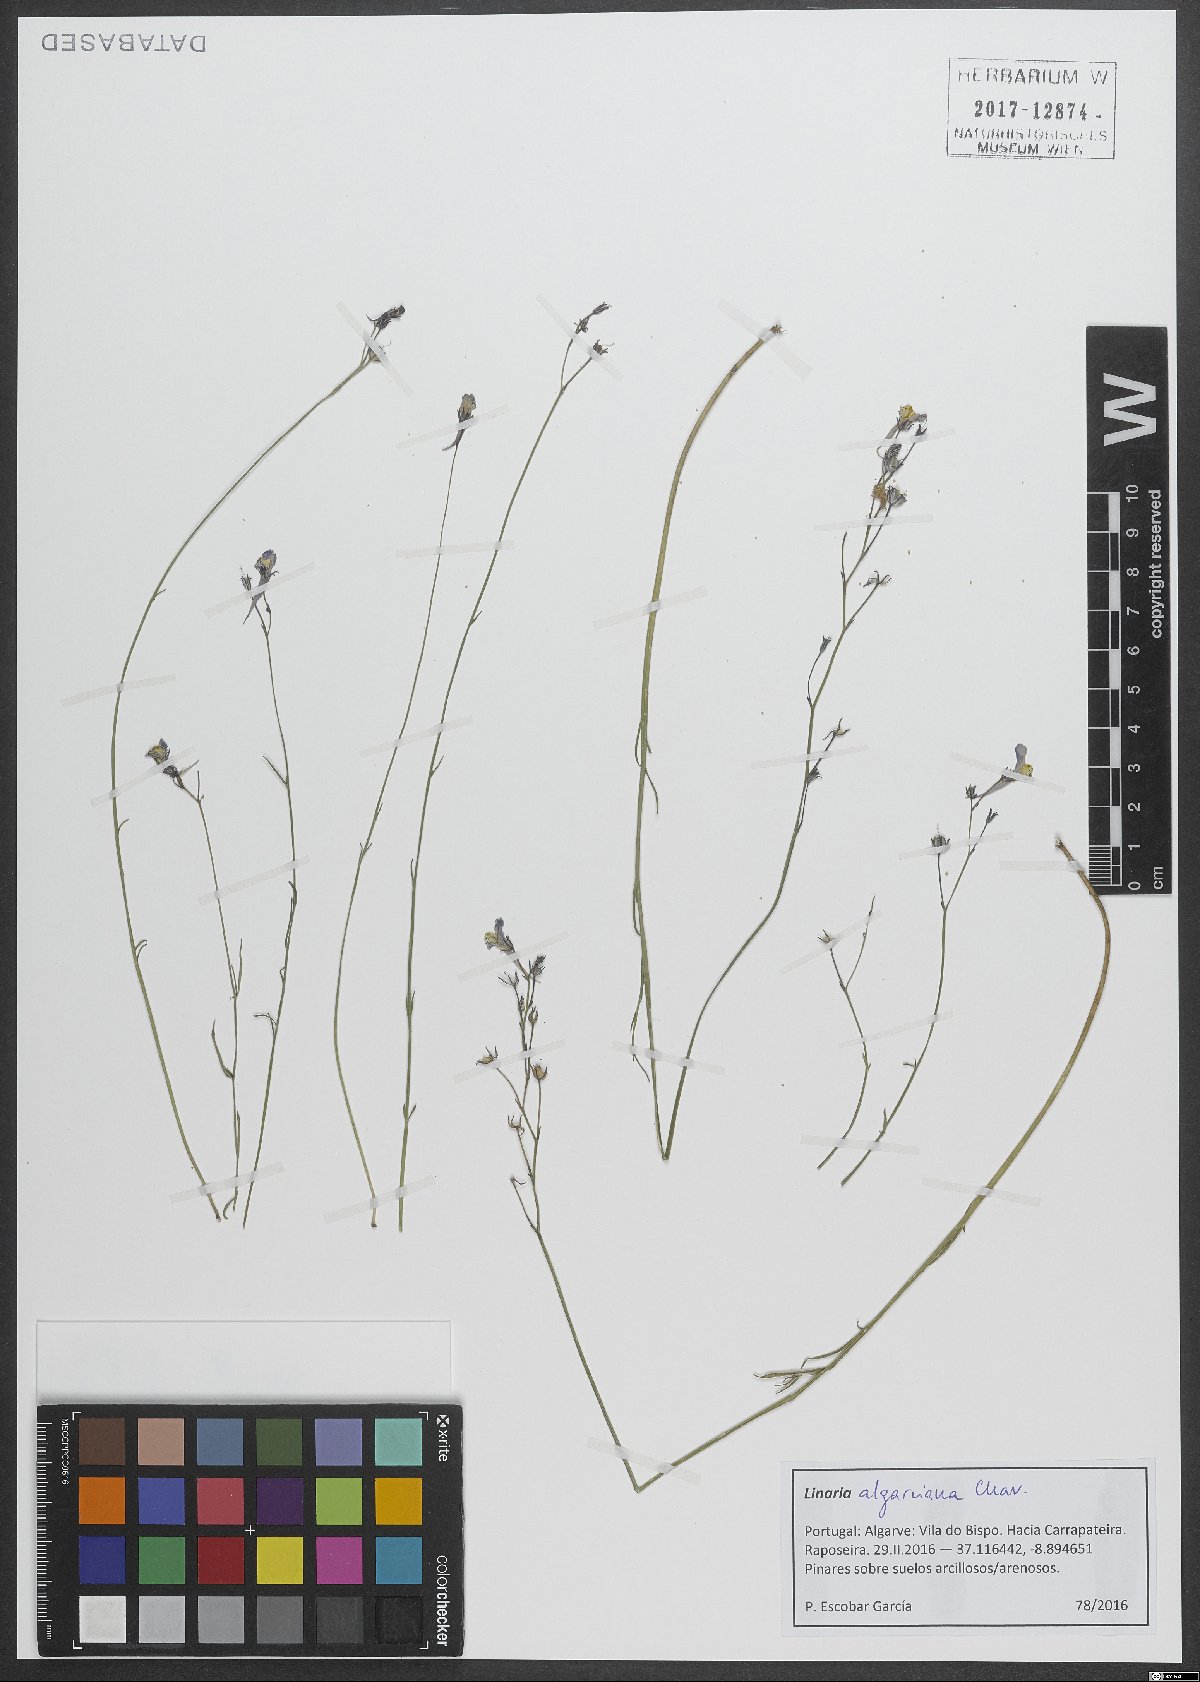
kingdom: Plantae
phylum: Tracheophyta
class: Magnoliopsida
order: Lamiales
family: Plantaginaceae
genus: Linaria
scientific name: Linaria
